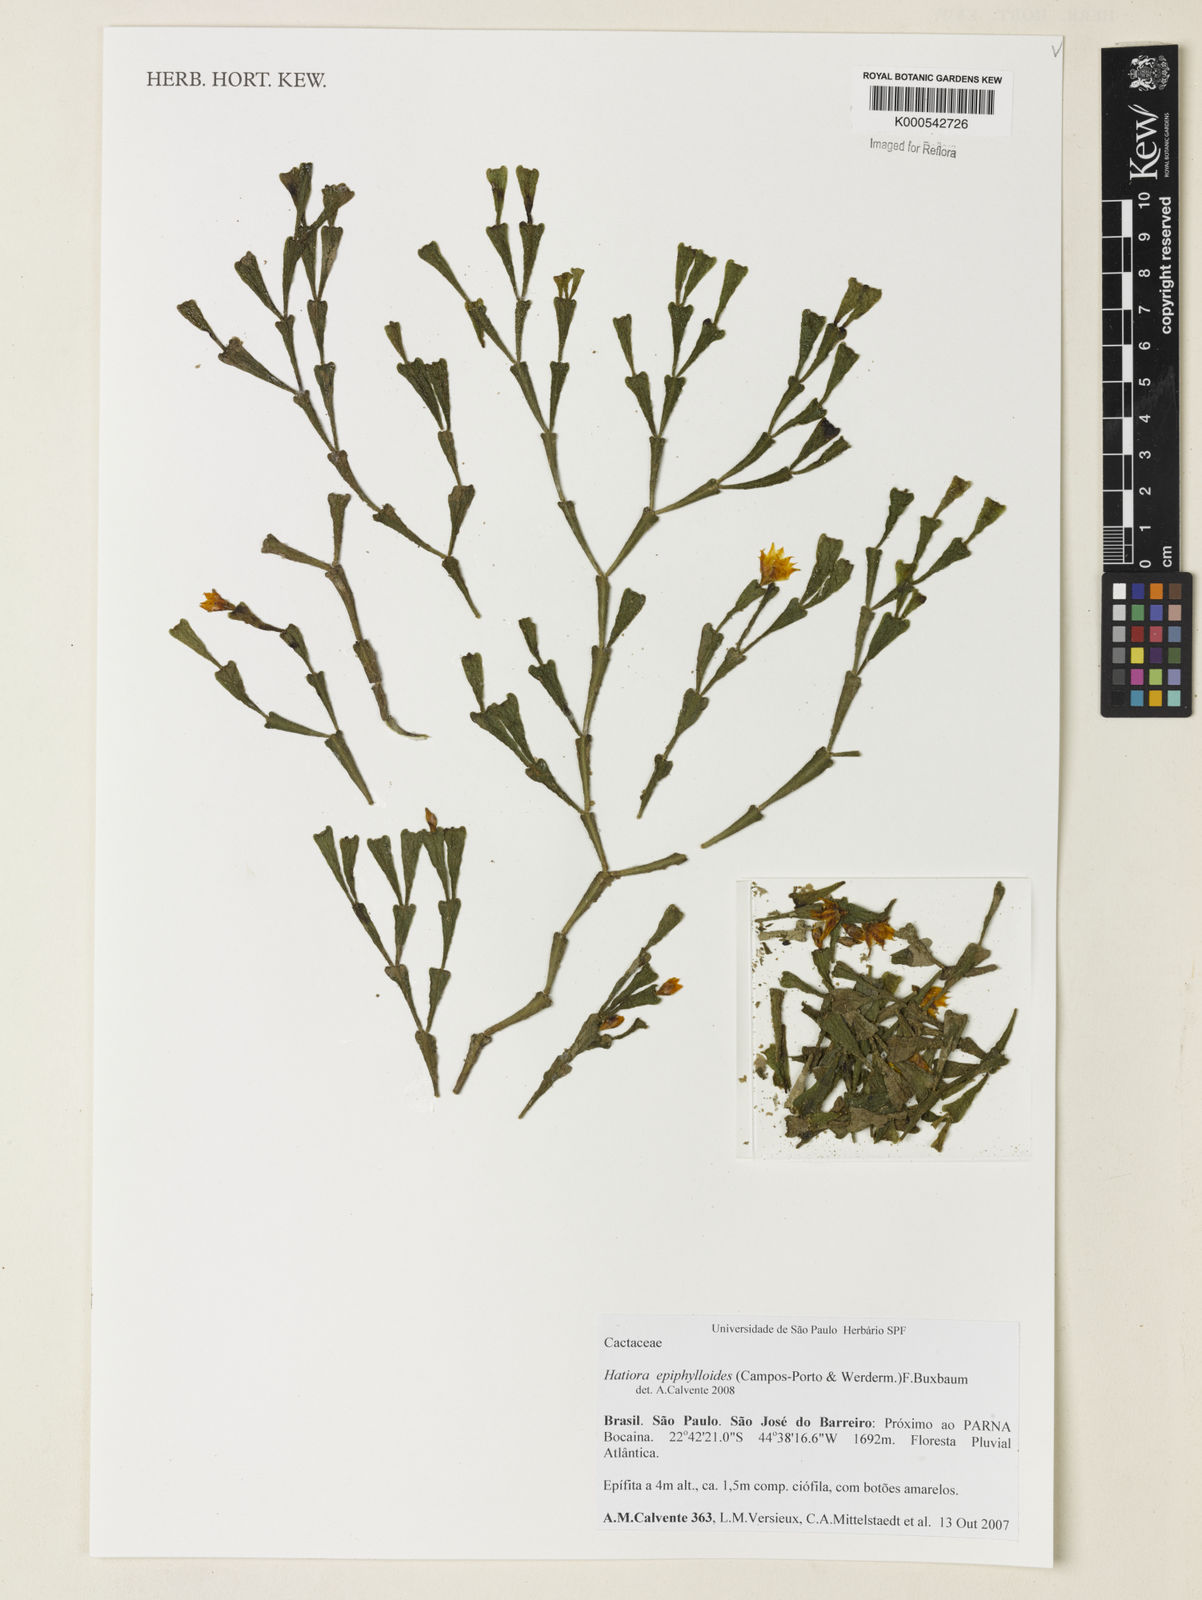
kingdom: Plantae
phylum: Tracheophyta
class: Magnoliopsida
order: Caryophyllales
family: Cactaceae
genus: Hatiora
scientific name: Hatiora
